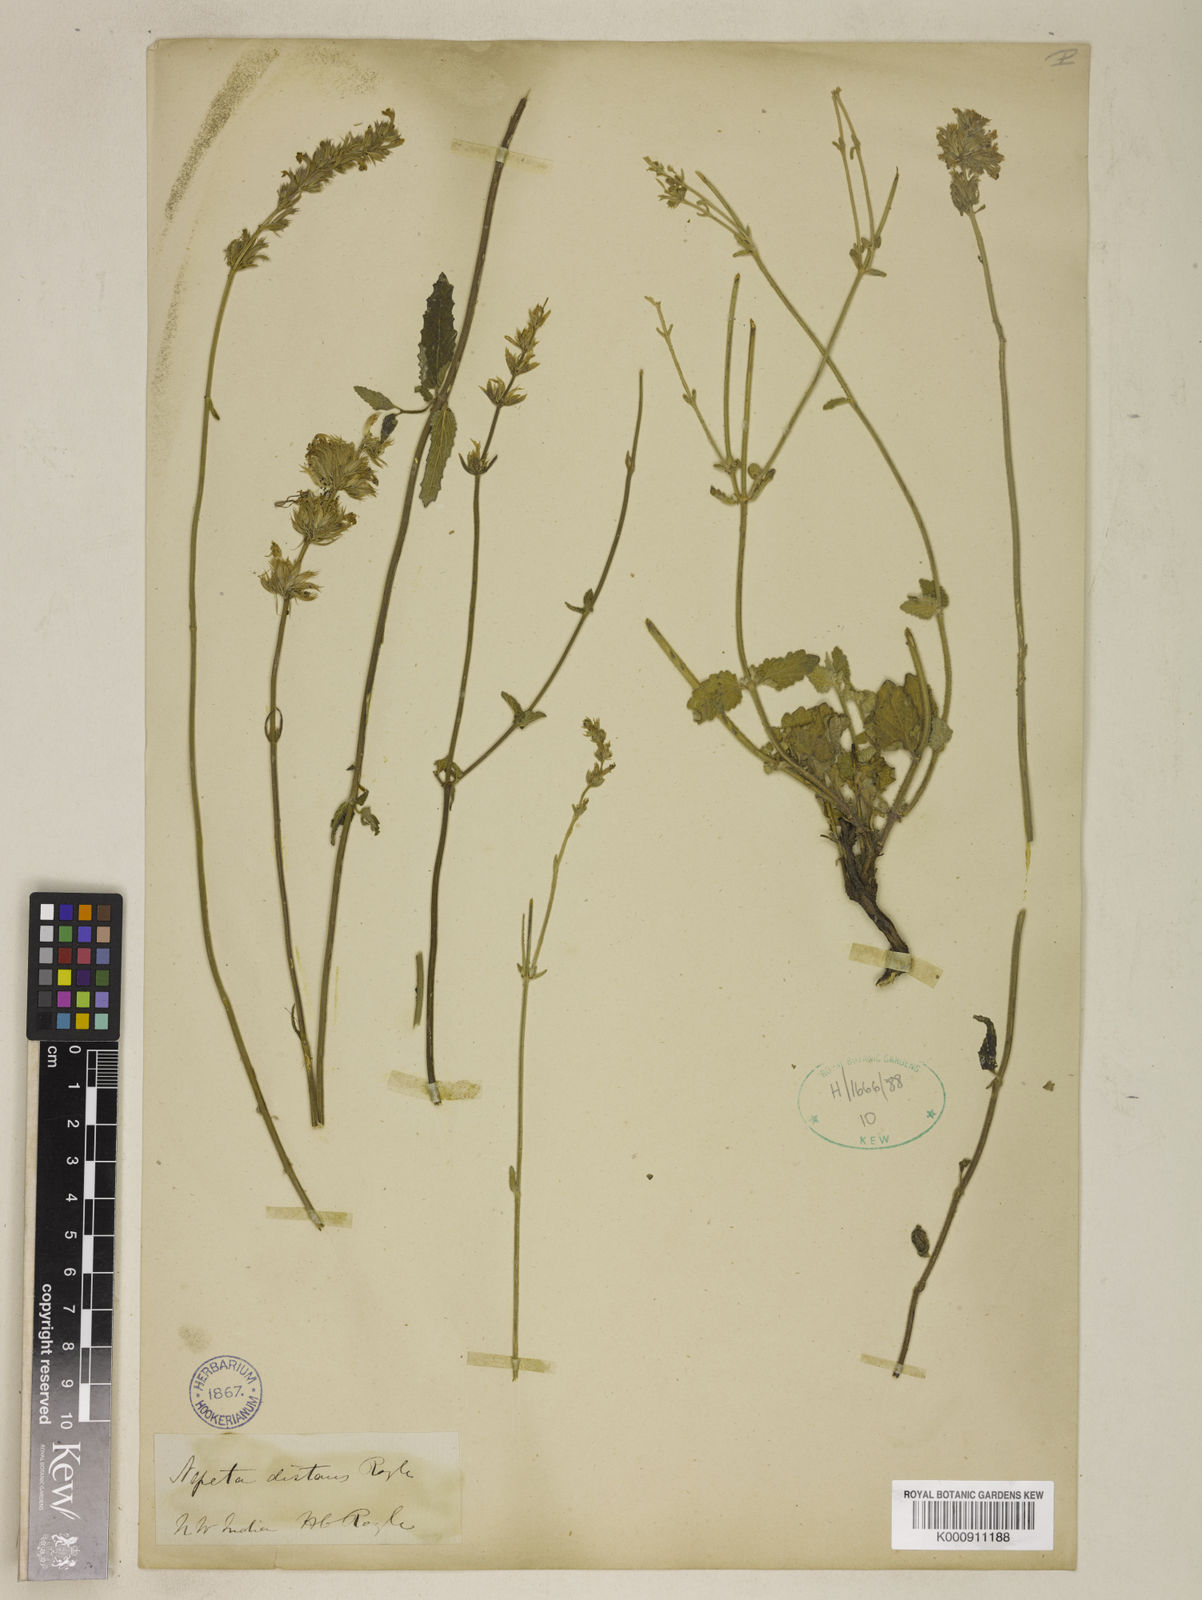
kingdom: Plantae
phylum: Tracheophyta
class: Magnoliopsida
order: Lamiales
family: Lamiaceae
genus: Nepeta
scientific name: Nepeta
